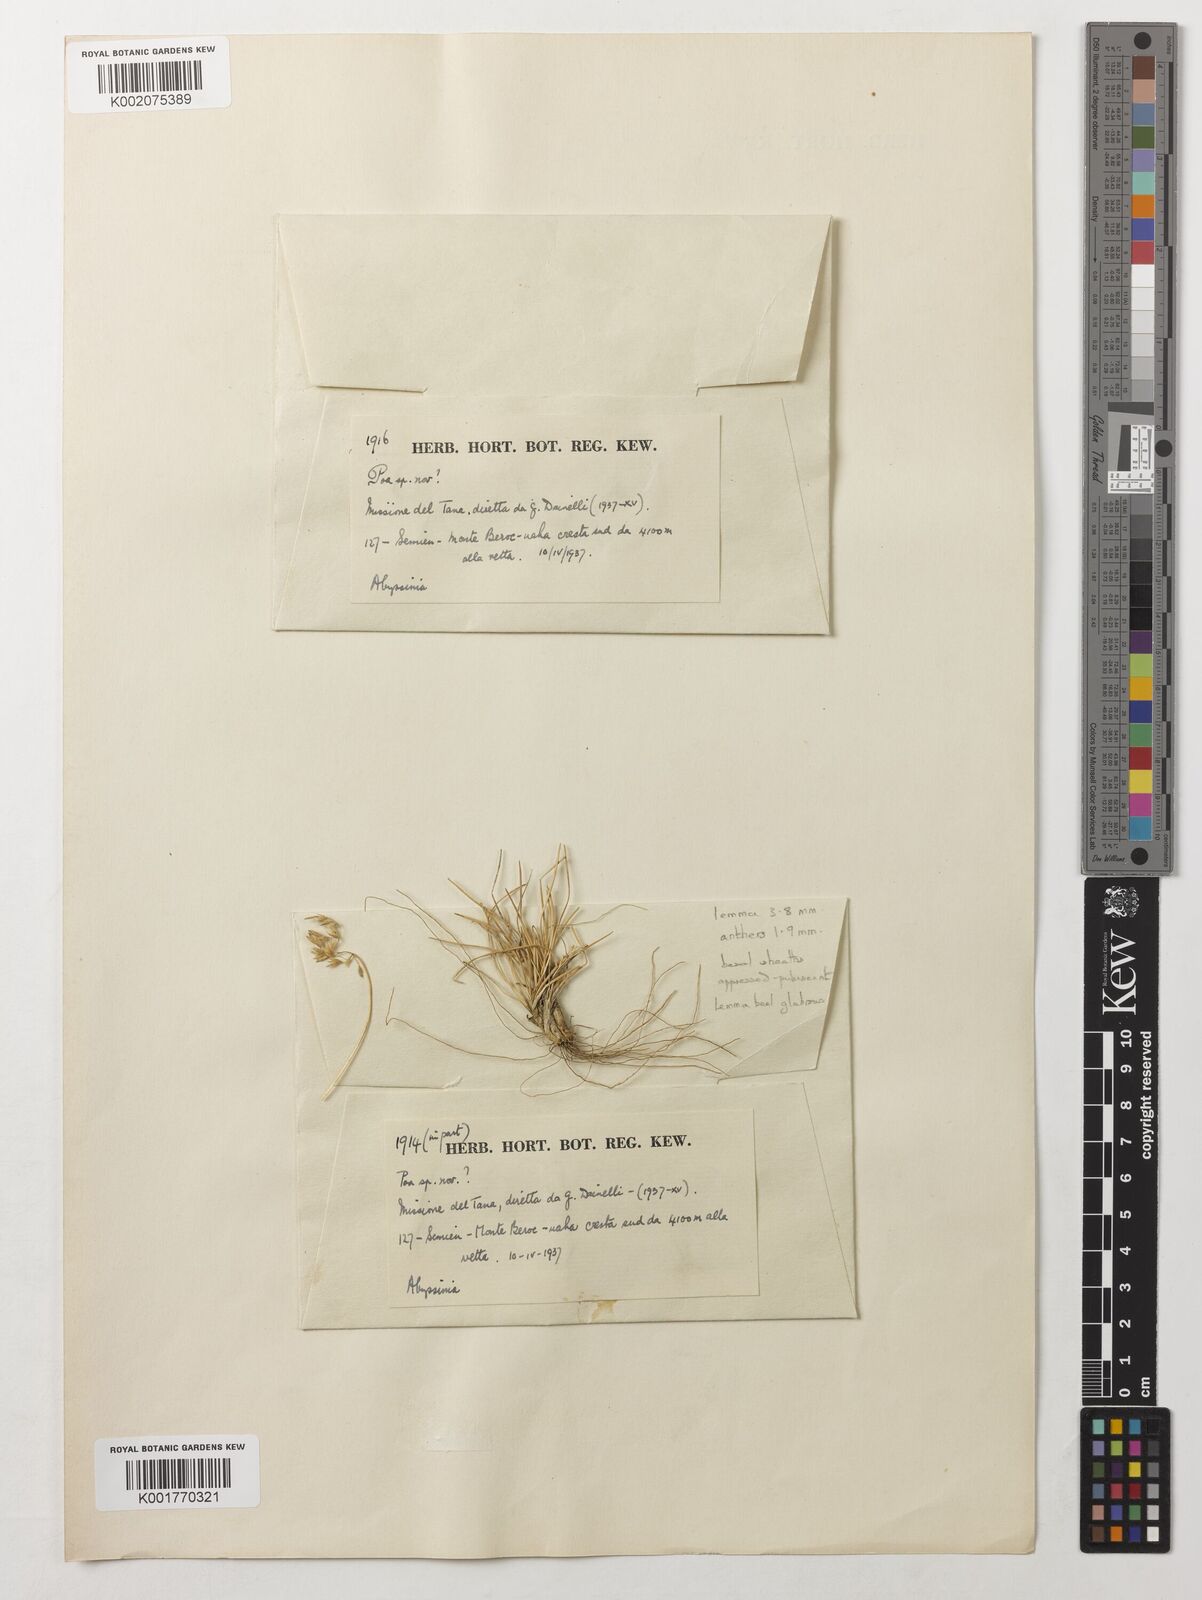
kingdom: Plantae
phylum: Tracheophyta
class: Liliopsida
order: Poales
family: Poaceae
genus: Leptochloa
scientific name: Leptochloa chinensis
